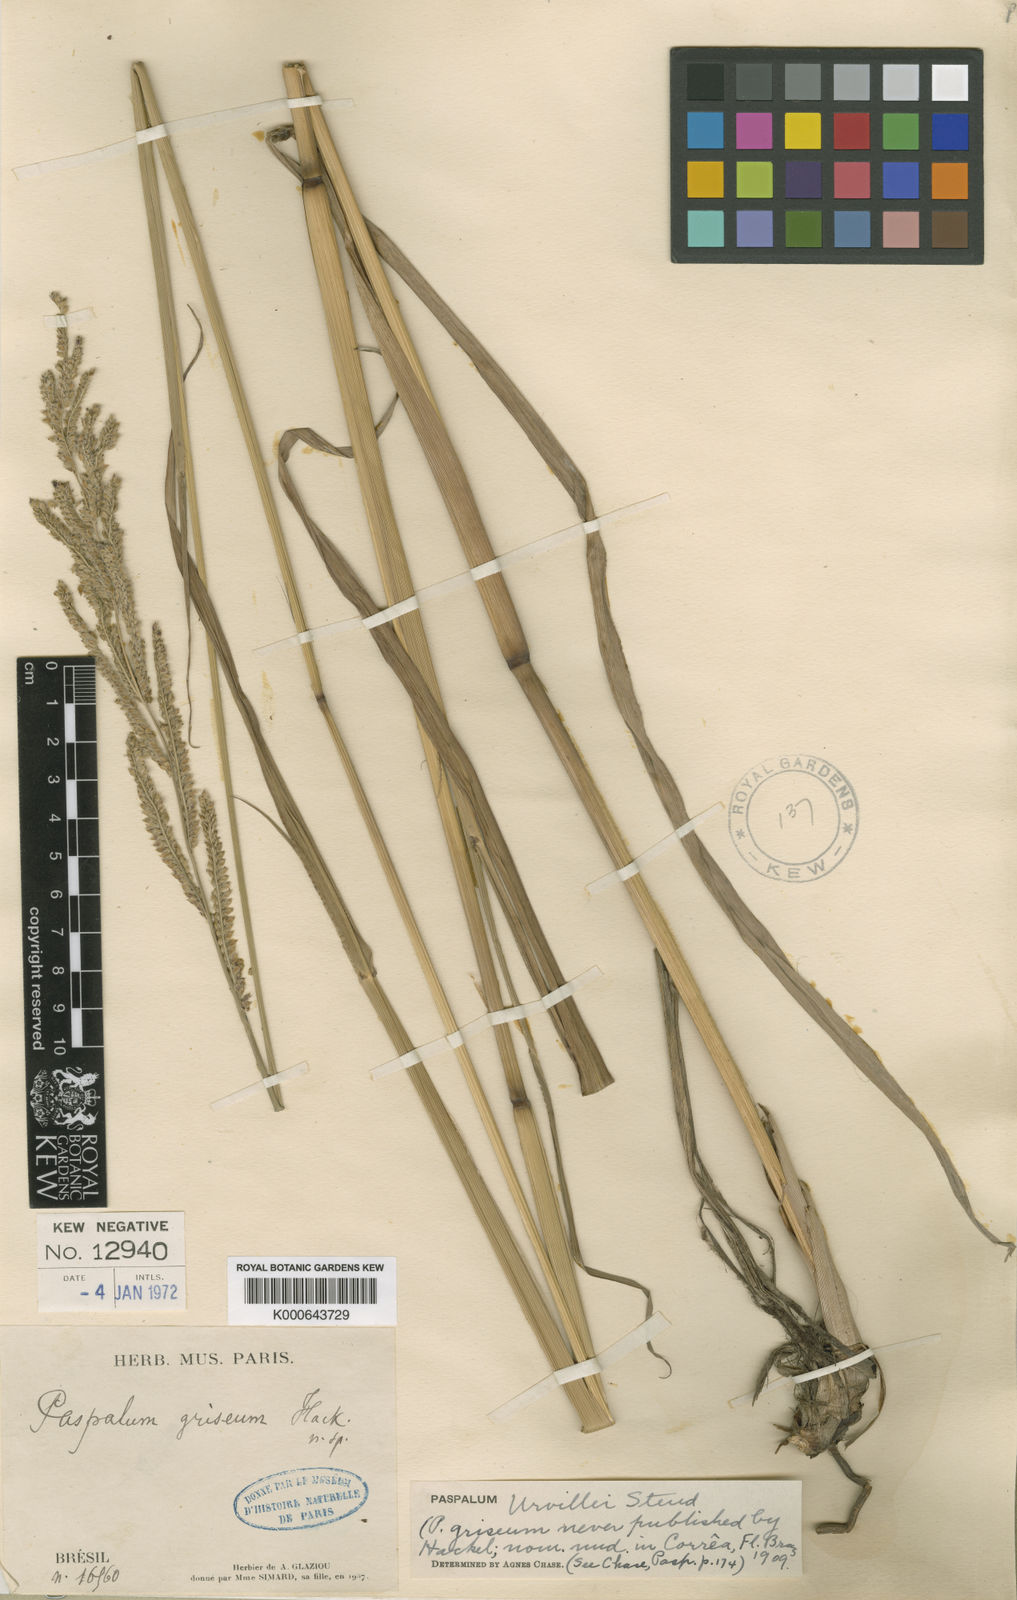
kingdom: Plantae
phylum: Tracheophyta
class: Liliopsida
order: Poales
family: Poaceae
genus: Paspalum
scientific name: Paspalum urvillei
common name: Vasey's grass
